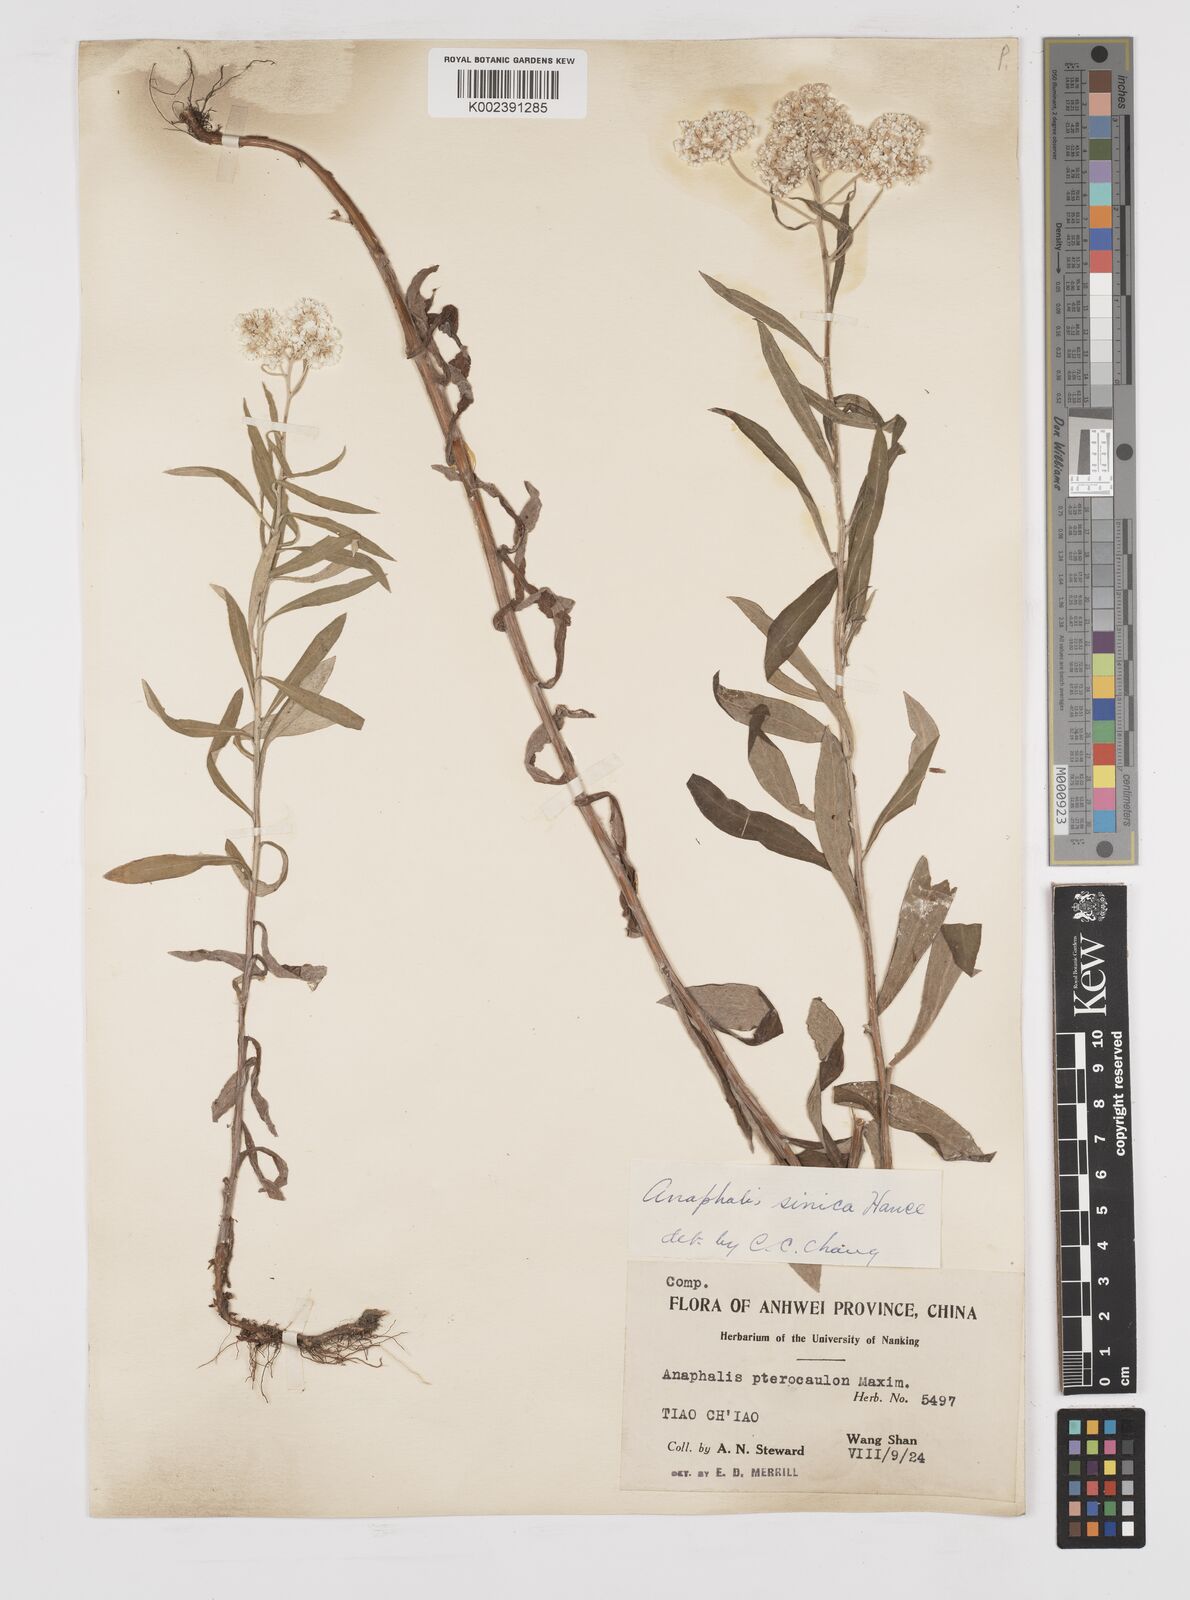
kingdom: Plantae
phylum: Tracheophyta
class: Magnoliopsida
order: Asterales
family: Asteraceae
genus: Anaphalis
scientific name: Anaphalis sinica
